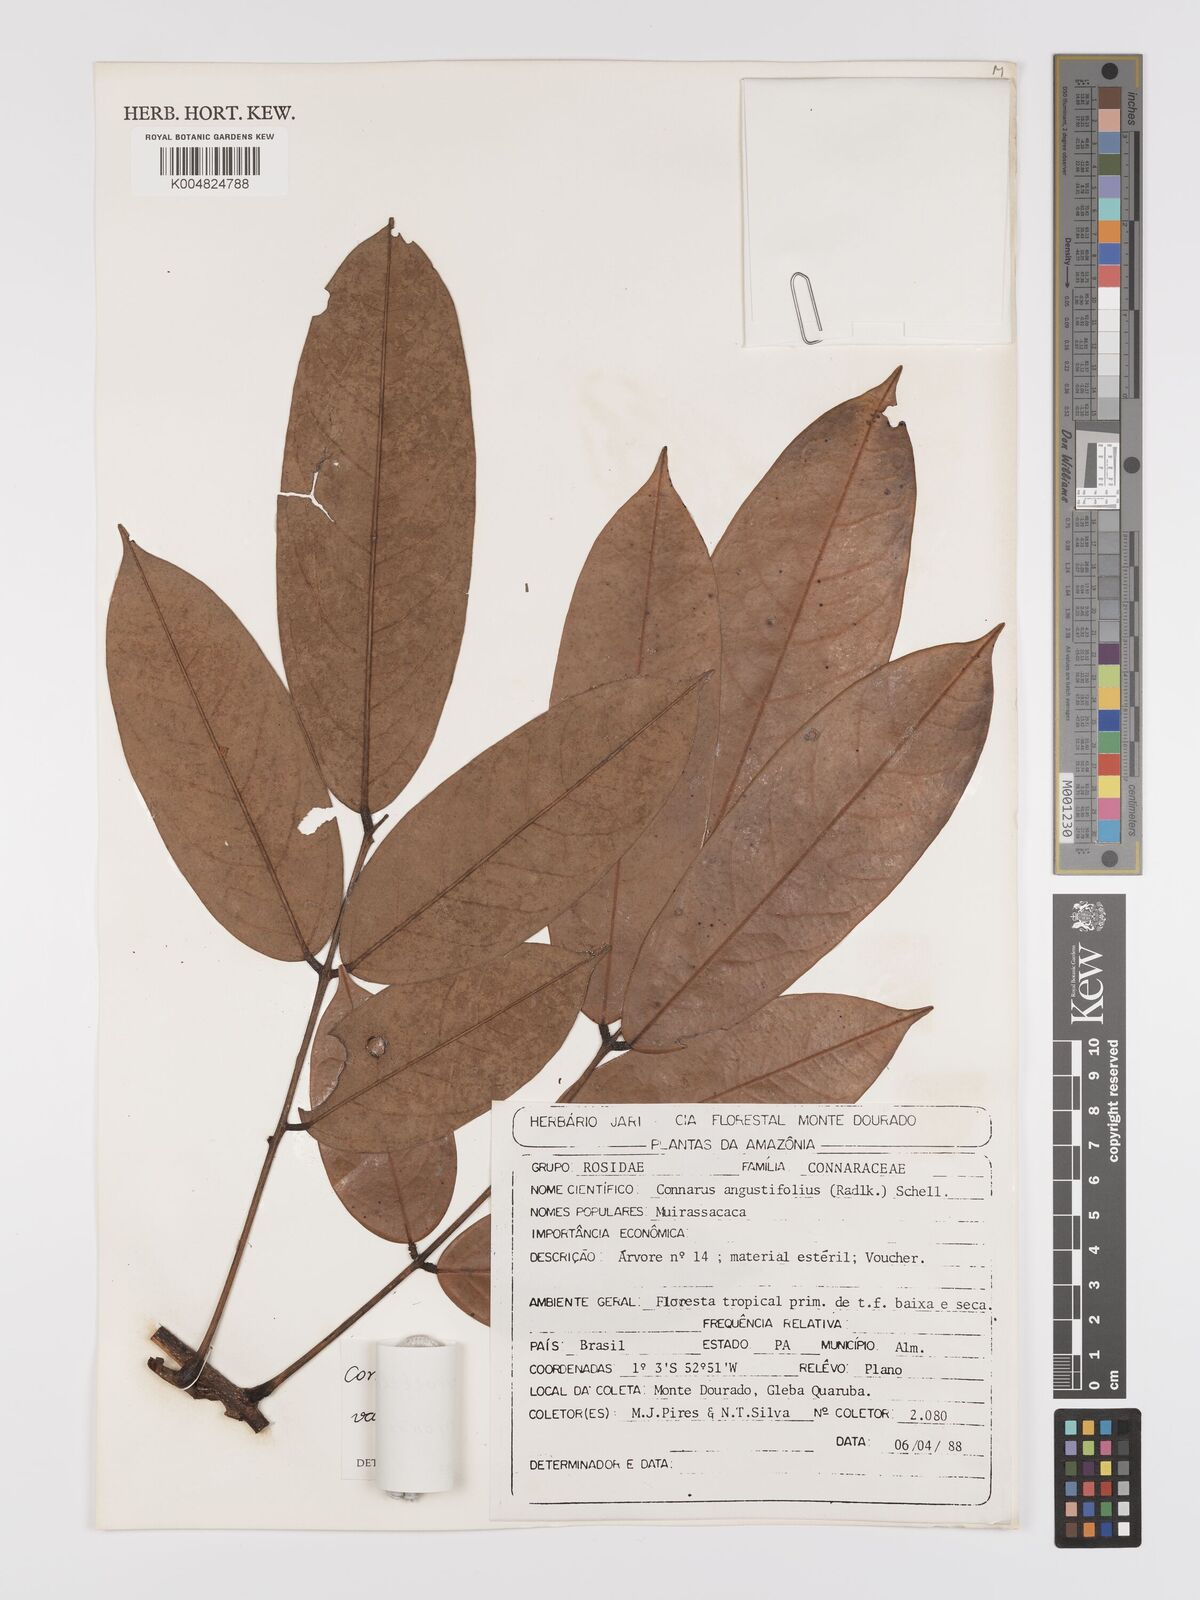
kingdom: Plantae
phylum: Tracheophyta
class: Magnoliopsida
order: Oxalidales
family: Connaraceae
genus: Connarus
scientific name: Connarus perrottetii
